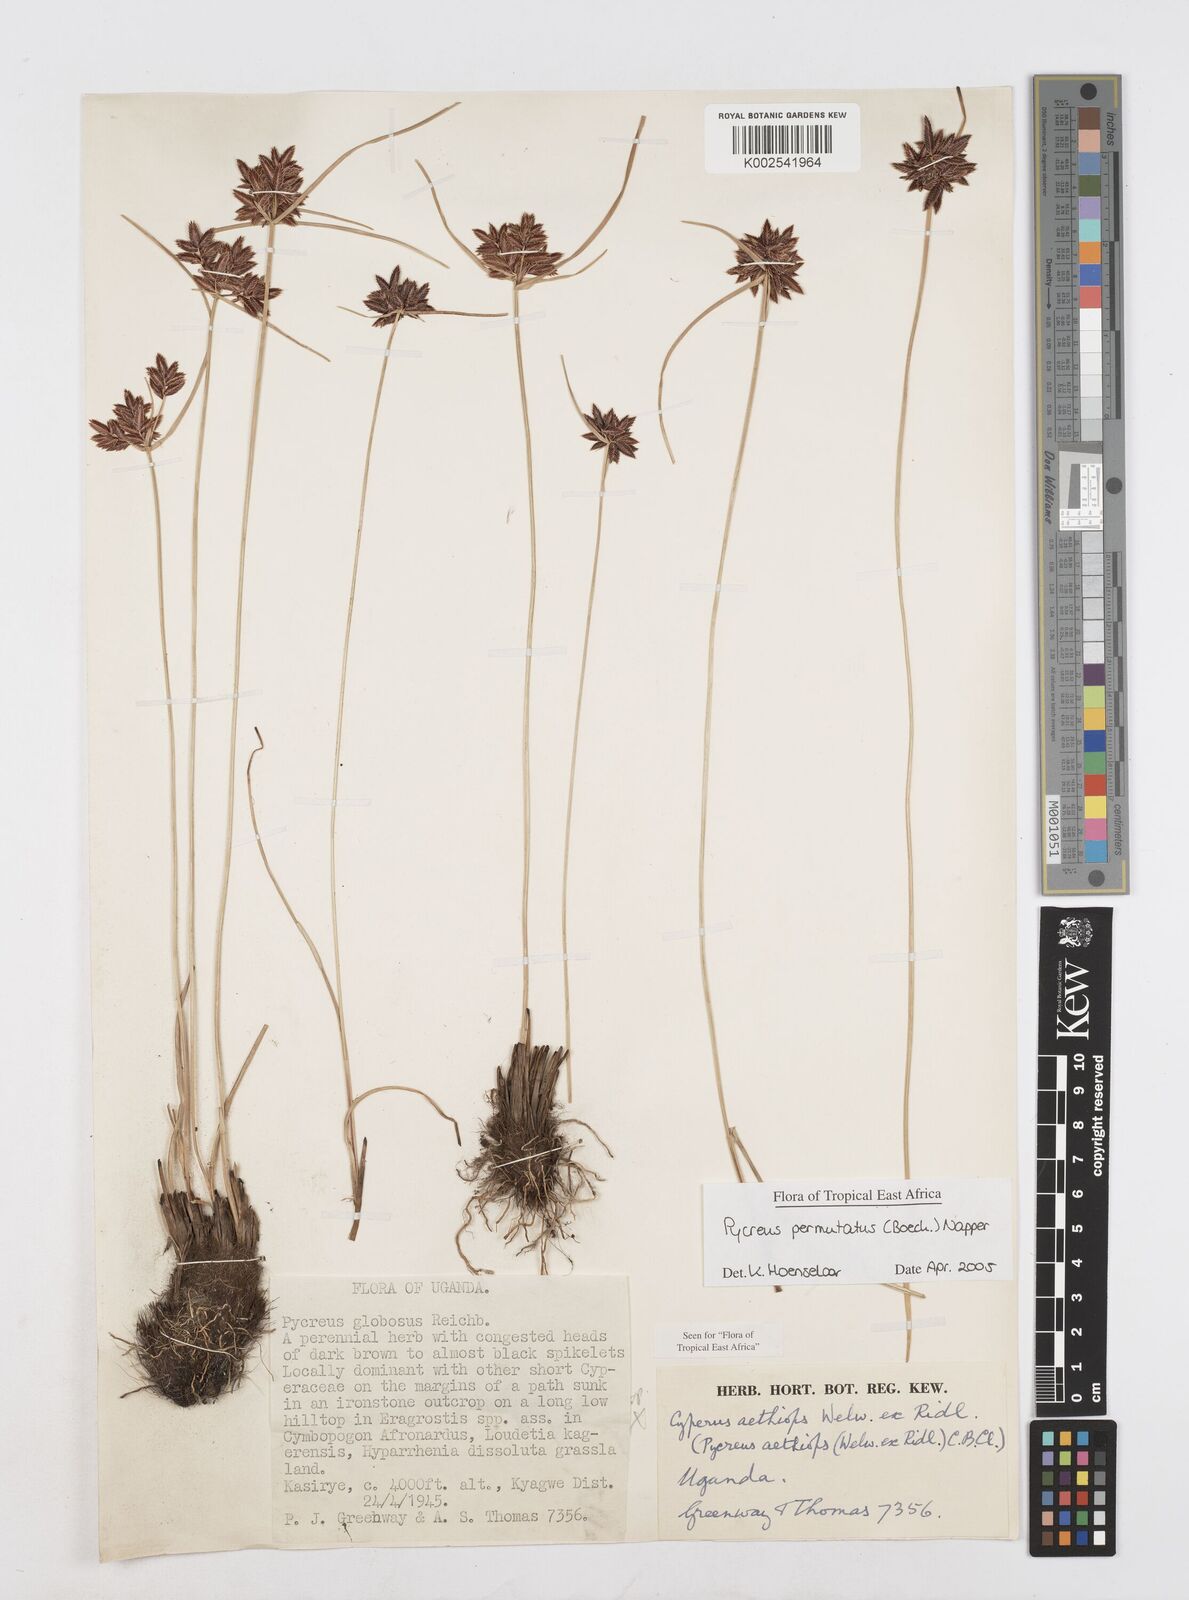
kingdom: Plantae
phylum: Tracheophyta
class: Liliopsida
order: Poales
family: Cyperaceae
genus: Cyperus
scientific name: Cyperus nigricans
